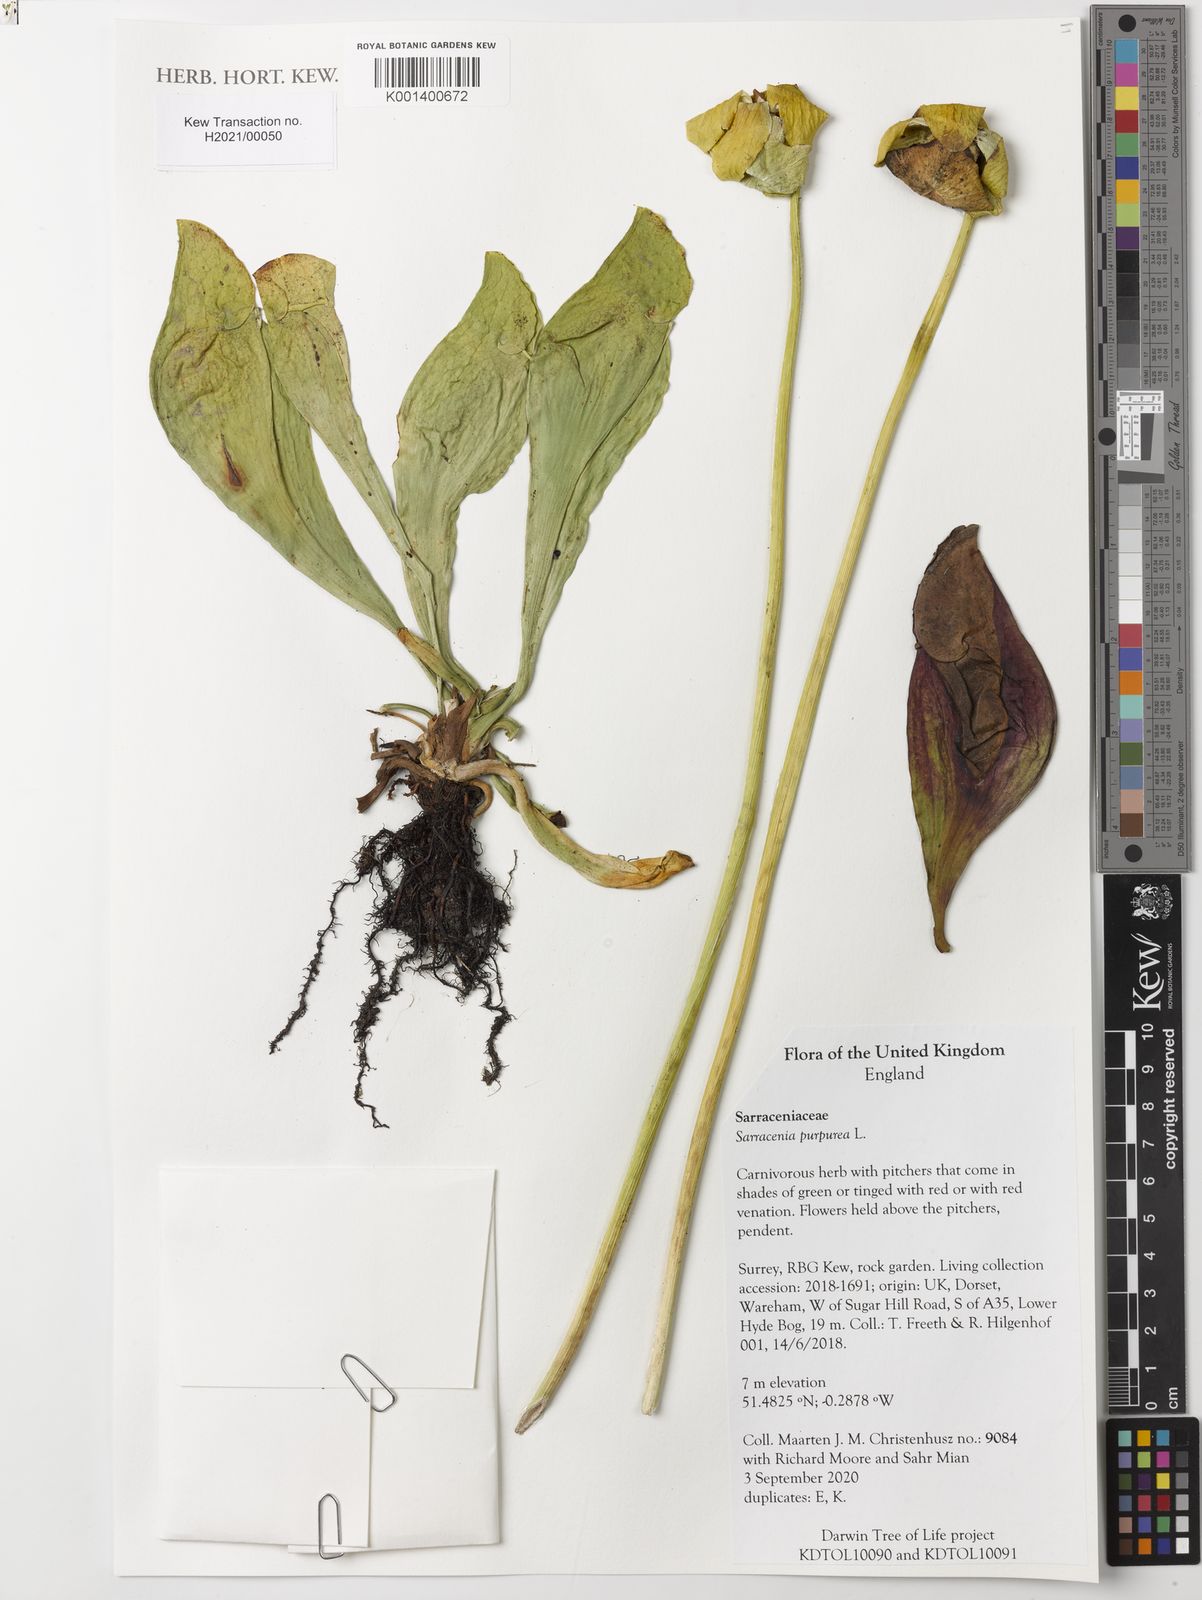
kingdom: Plantae
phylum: Tracheophyta
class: Magnoliopsida
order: Ericales
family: Sarraceniaceae
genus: Sarracenia
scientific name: Sarracenia purpurea
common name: Pitcherplant
